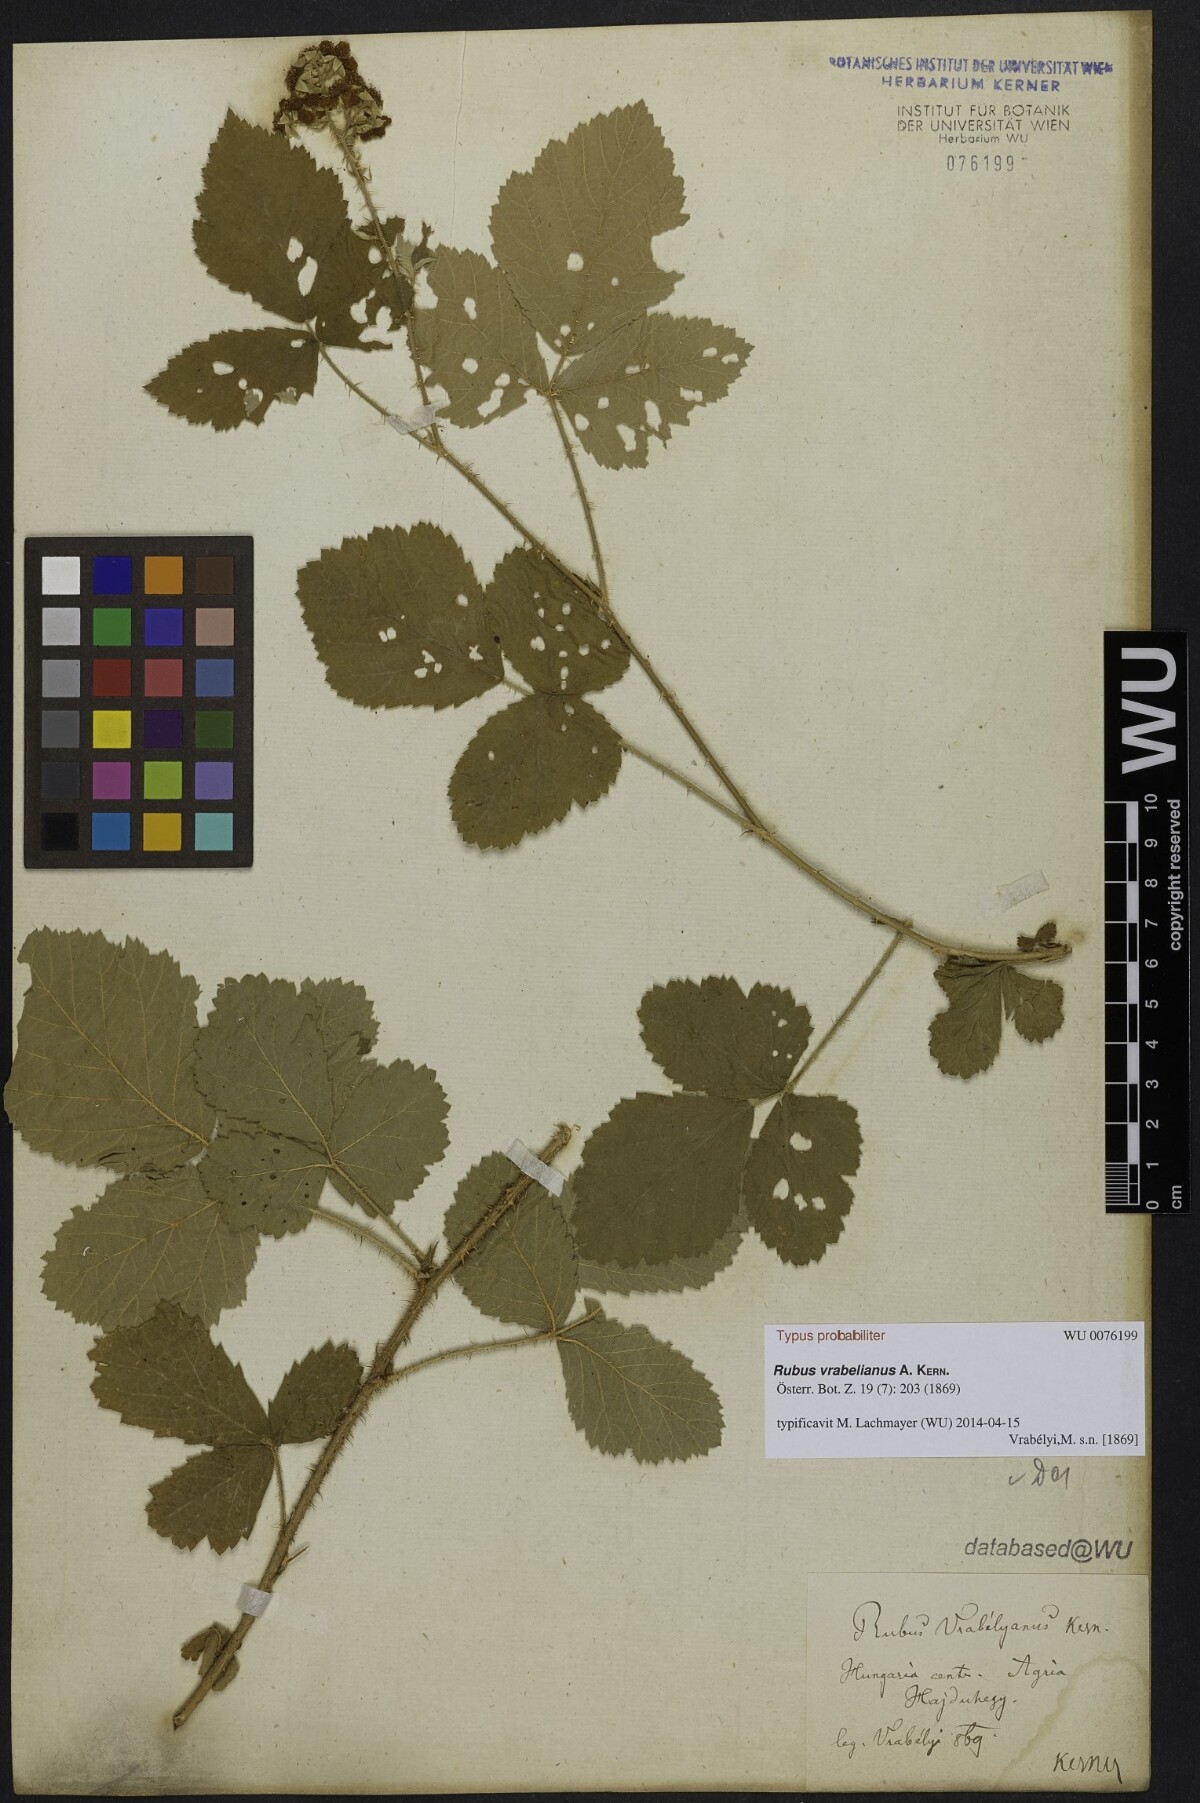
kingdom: Plantae
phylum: Tracheophyta
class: Magnoliopsida
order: Rosales
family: Rosaceae
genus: Rubus
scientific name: Rubus vrabelianus
